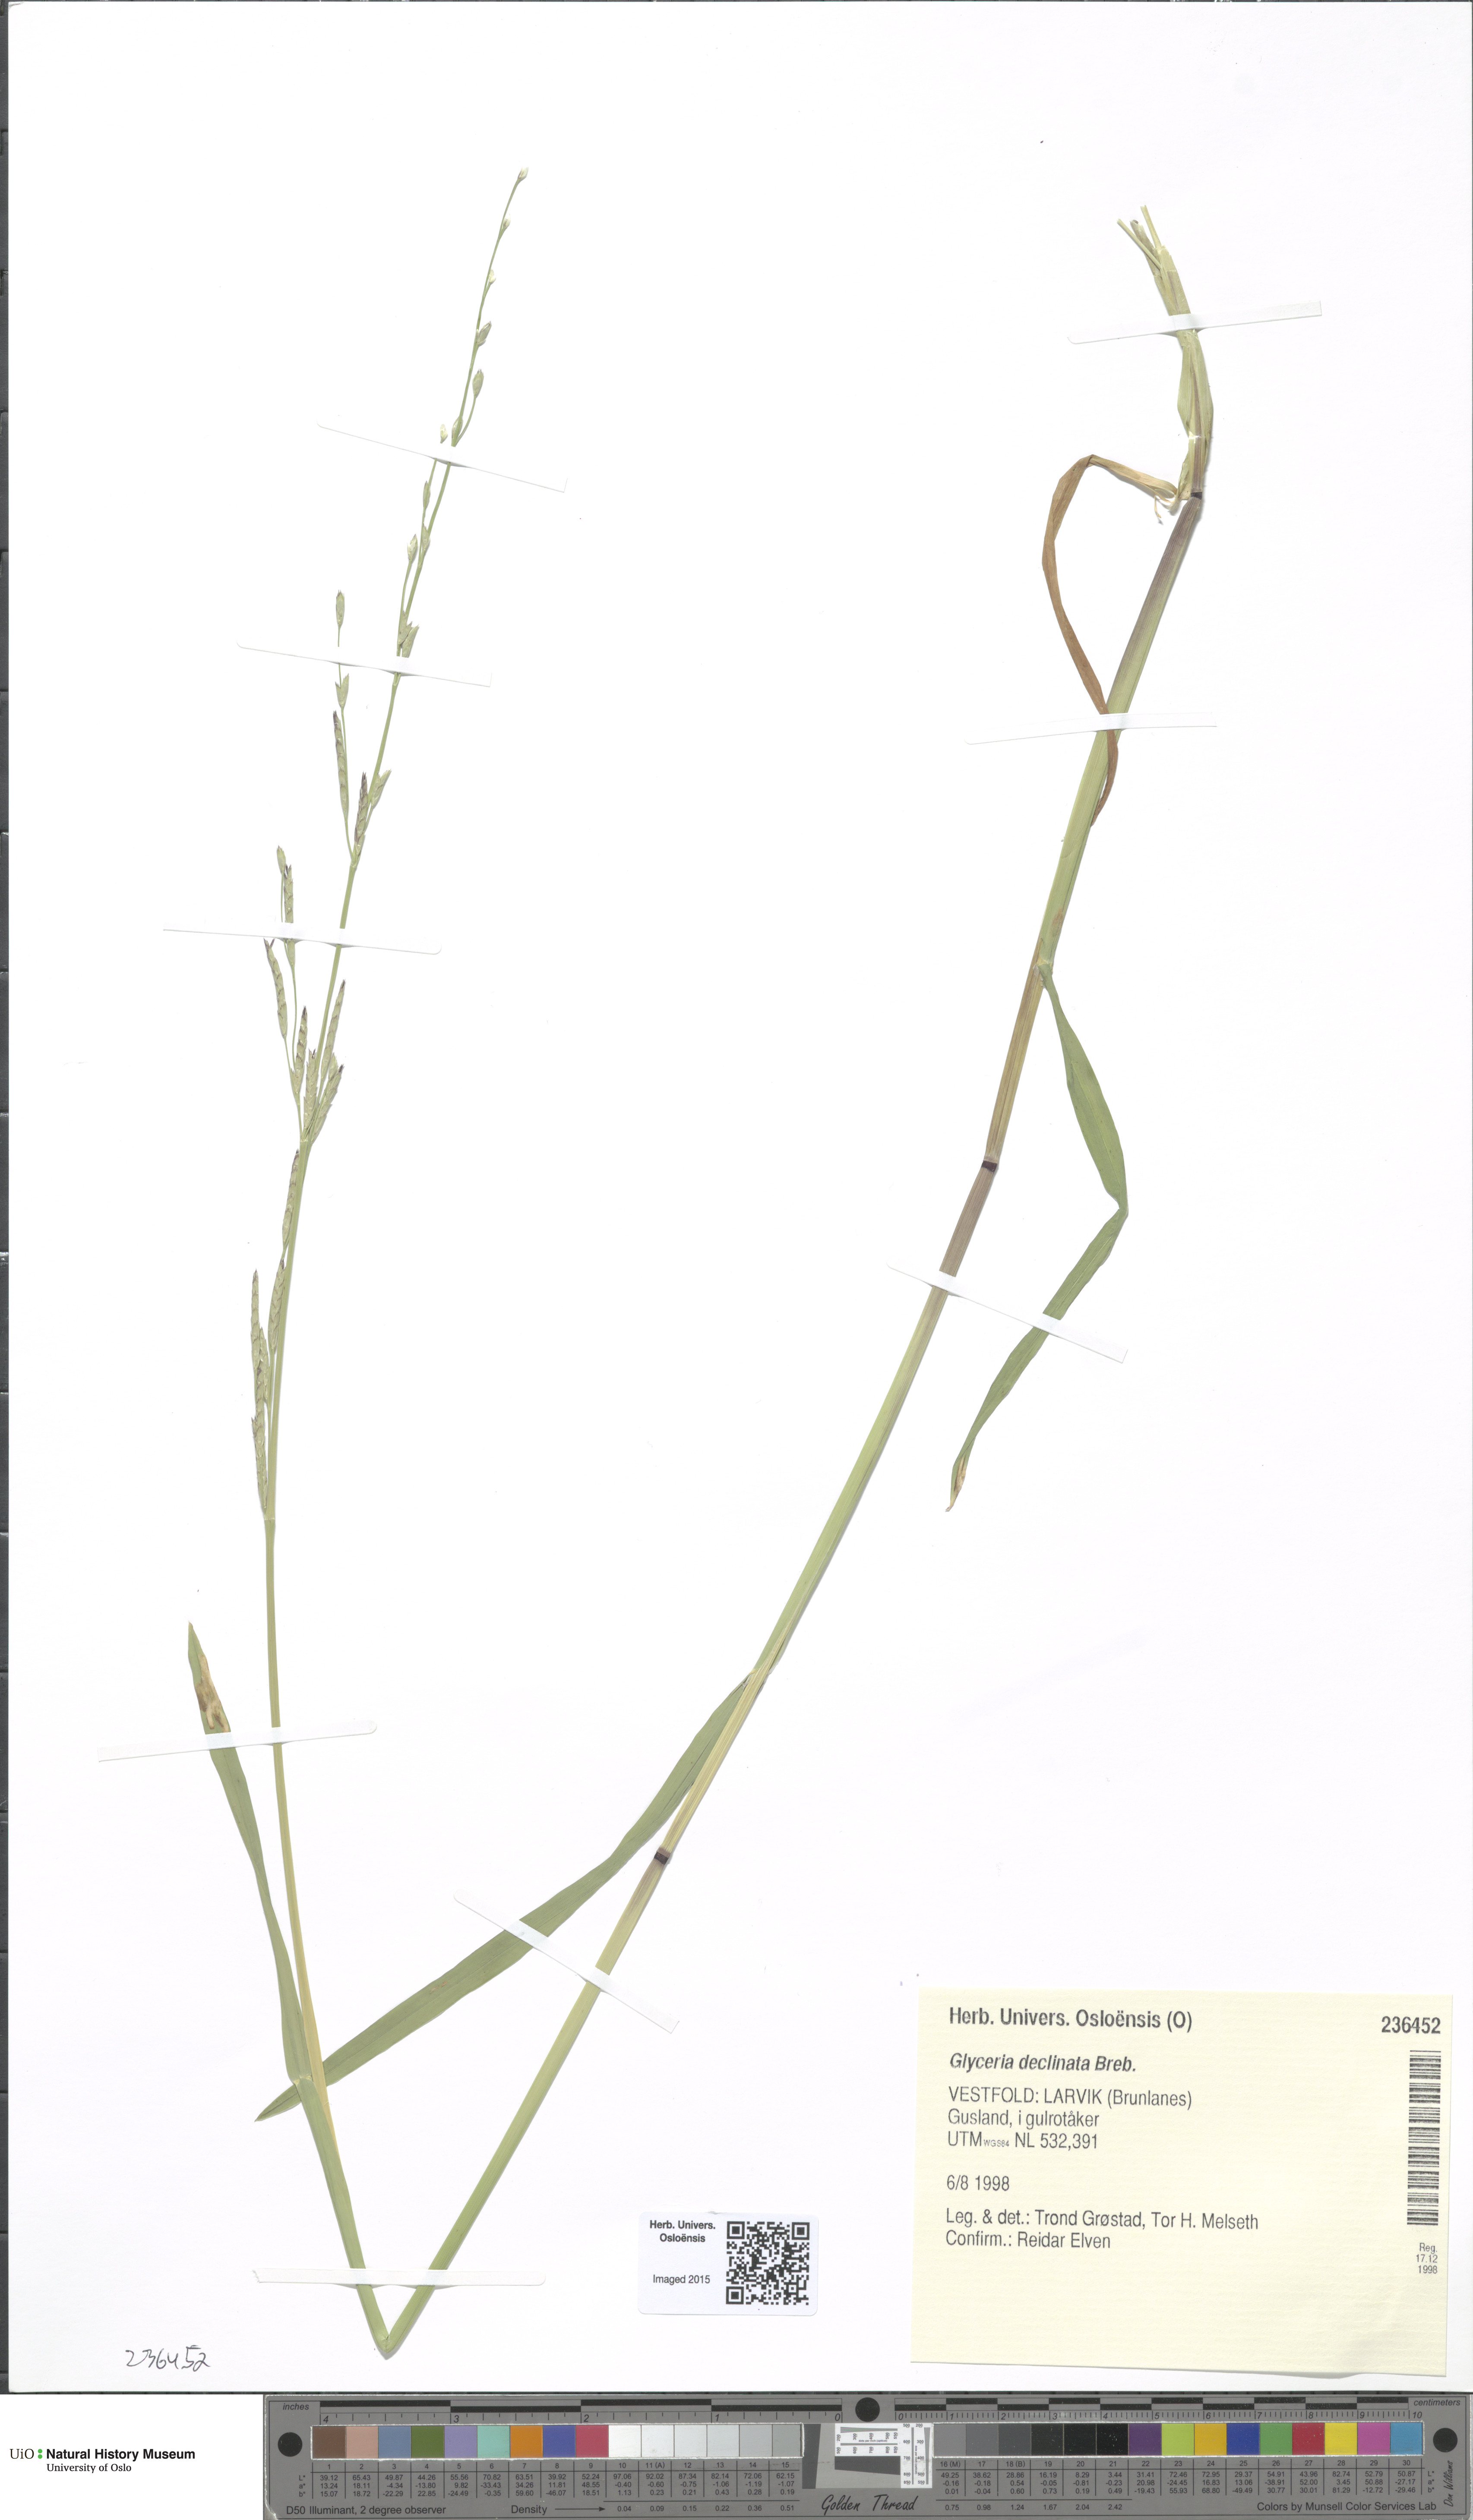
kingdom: Plantae
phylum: Tracheophyta
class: Liliopsida
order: Poales
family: Poaceae
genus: Glyceria
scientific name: Glyceria declinata
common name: Small sweet-grass
